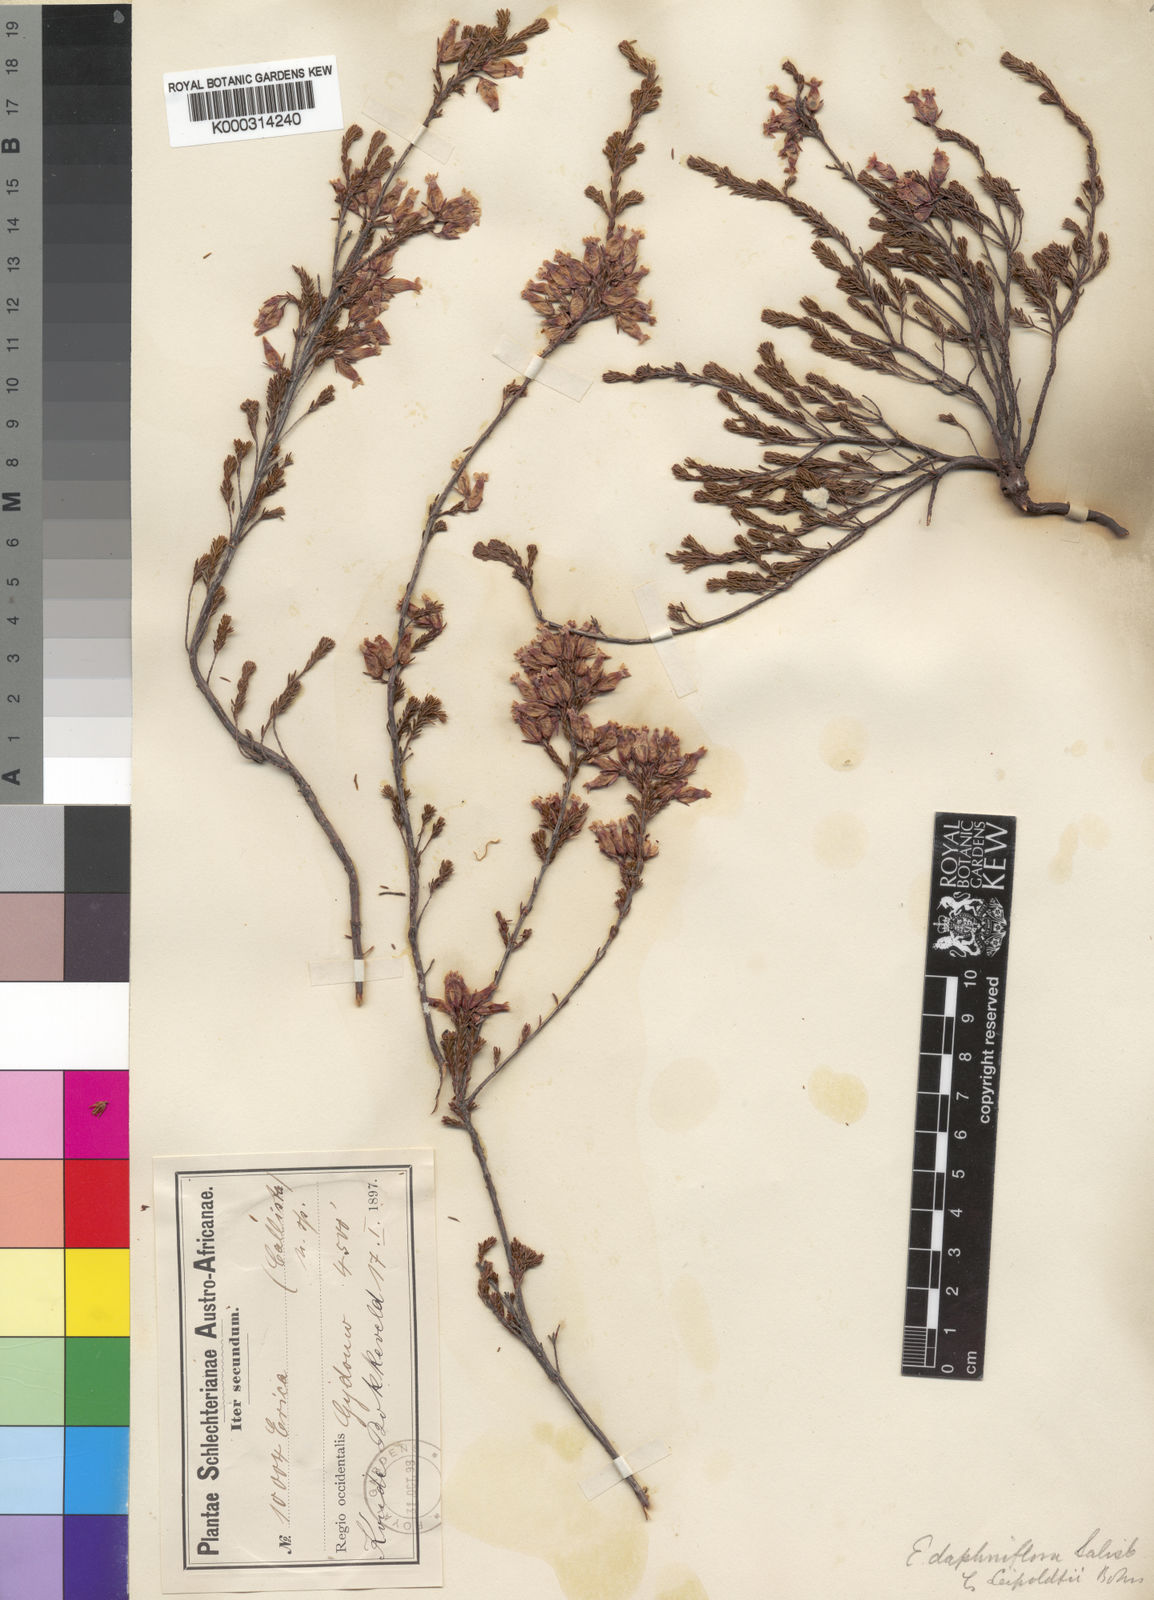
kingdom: Plantae
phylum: Tracheophyta
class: Magnoliopsida
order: Ericales
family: Ericaceae
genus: Erica
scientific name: Erica daphniflora
